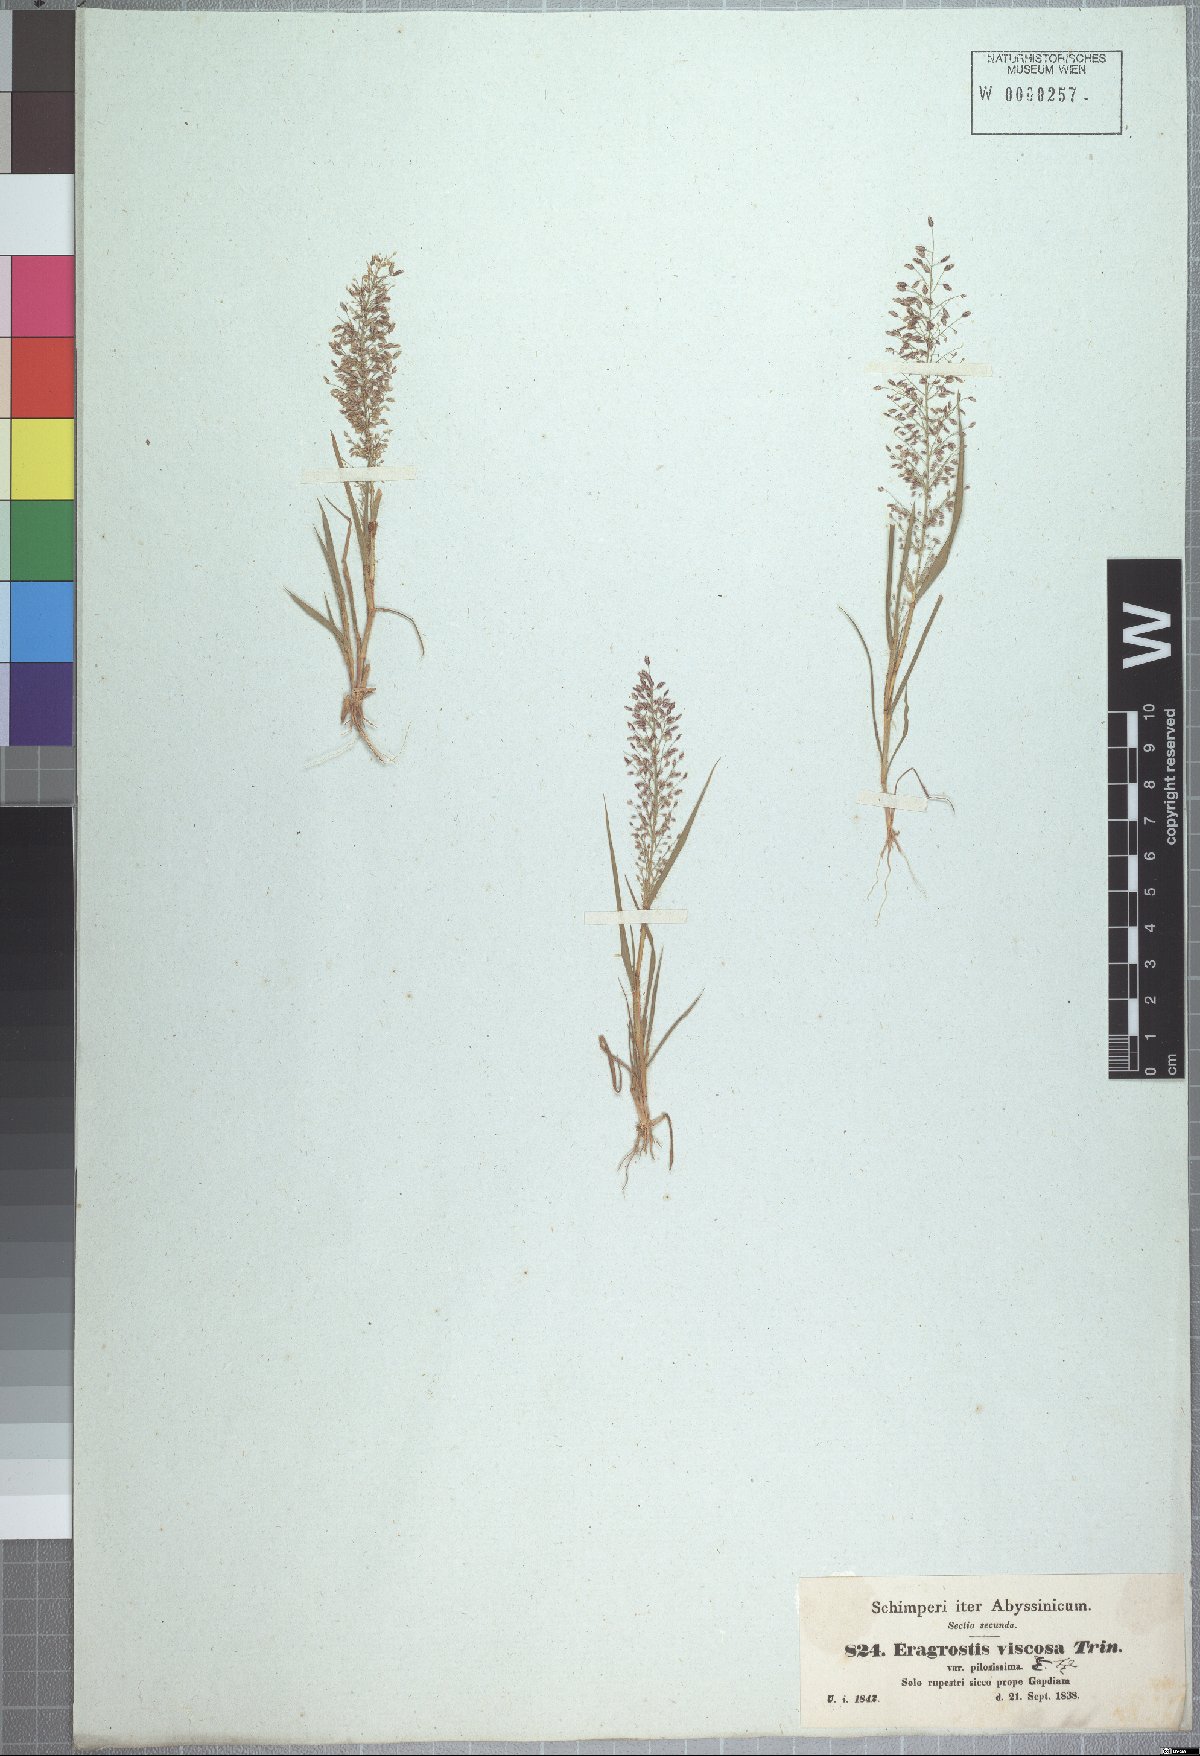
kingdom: Plantae
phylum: Tracheophyta
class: Liliopsida
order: Poales
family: Poaceae
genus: Eragrostis
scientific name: Eragrostis viscosa
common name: Sticky love grass
